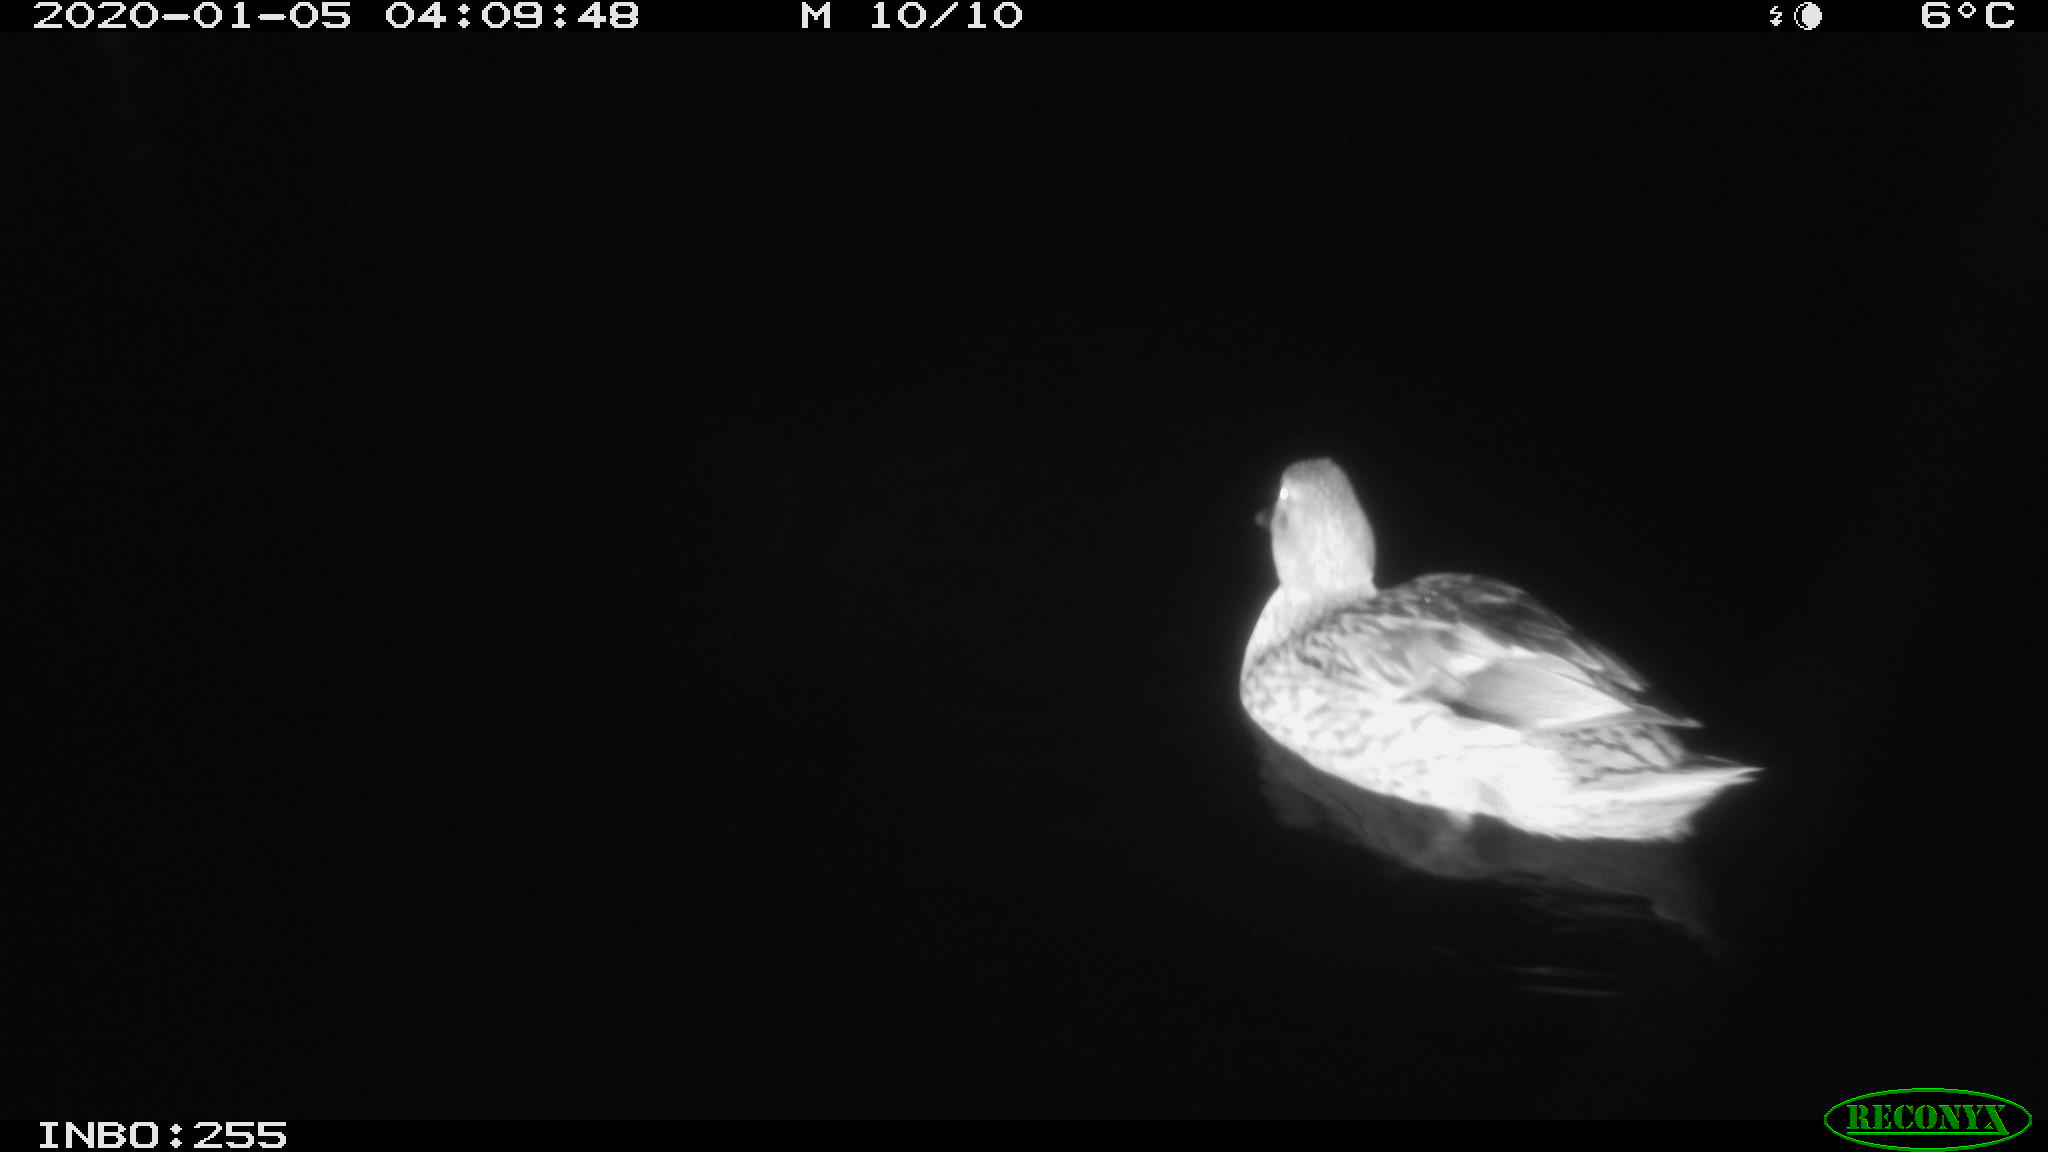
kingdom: Animalia
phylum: Chordata
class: Aves
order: Anseriformes
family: Anatidae
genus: Anas
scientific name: Anas platyrhynchos
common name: Mallard
